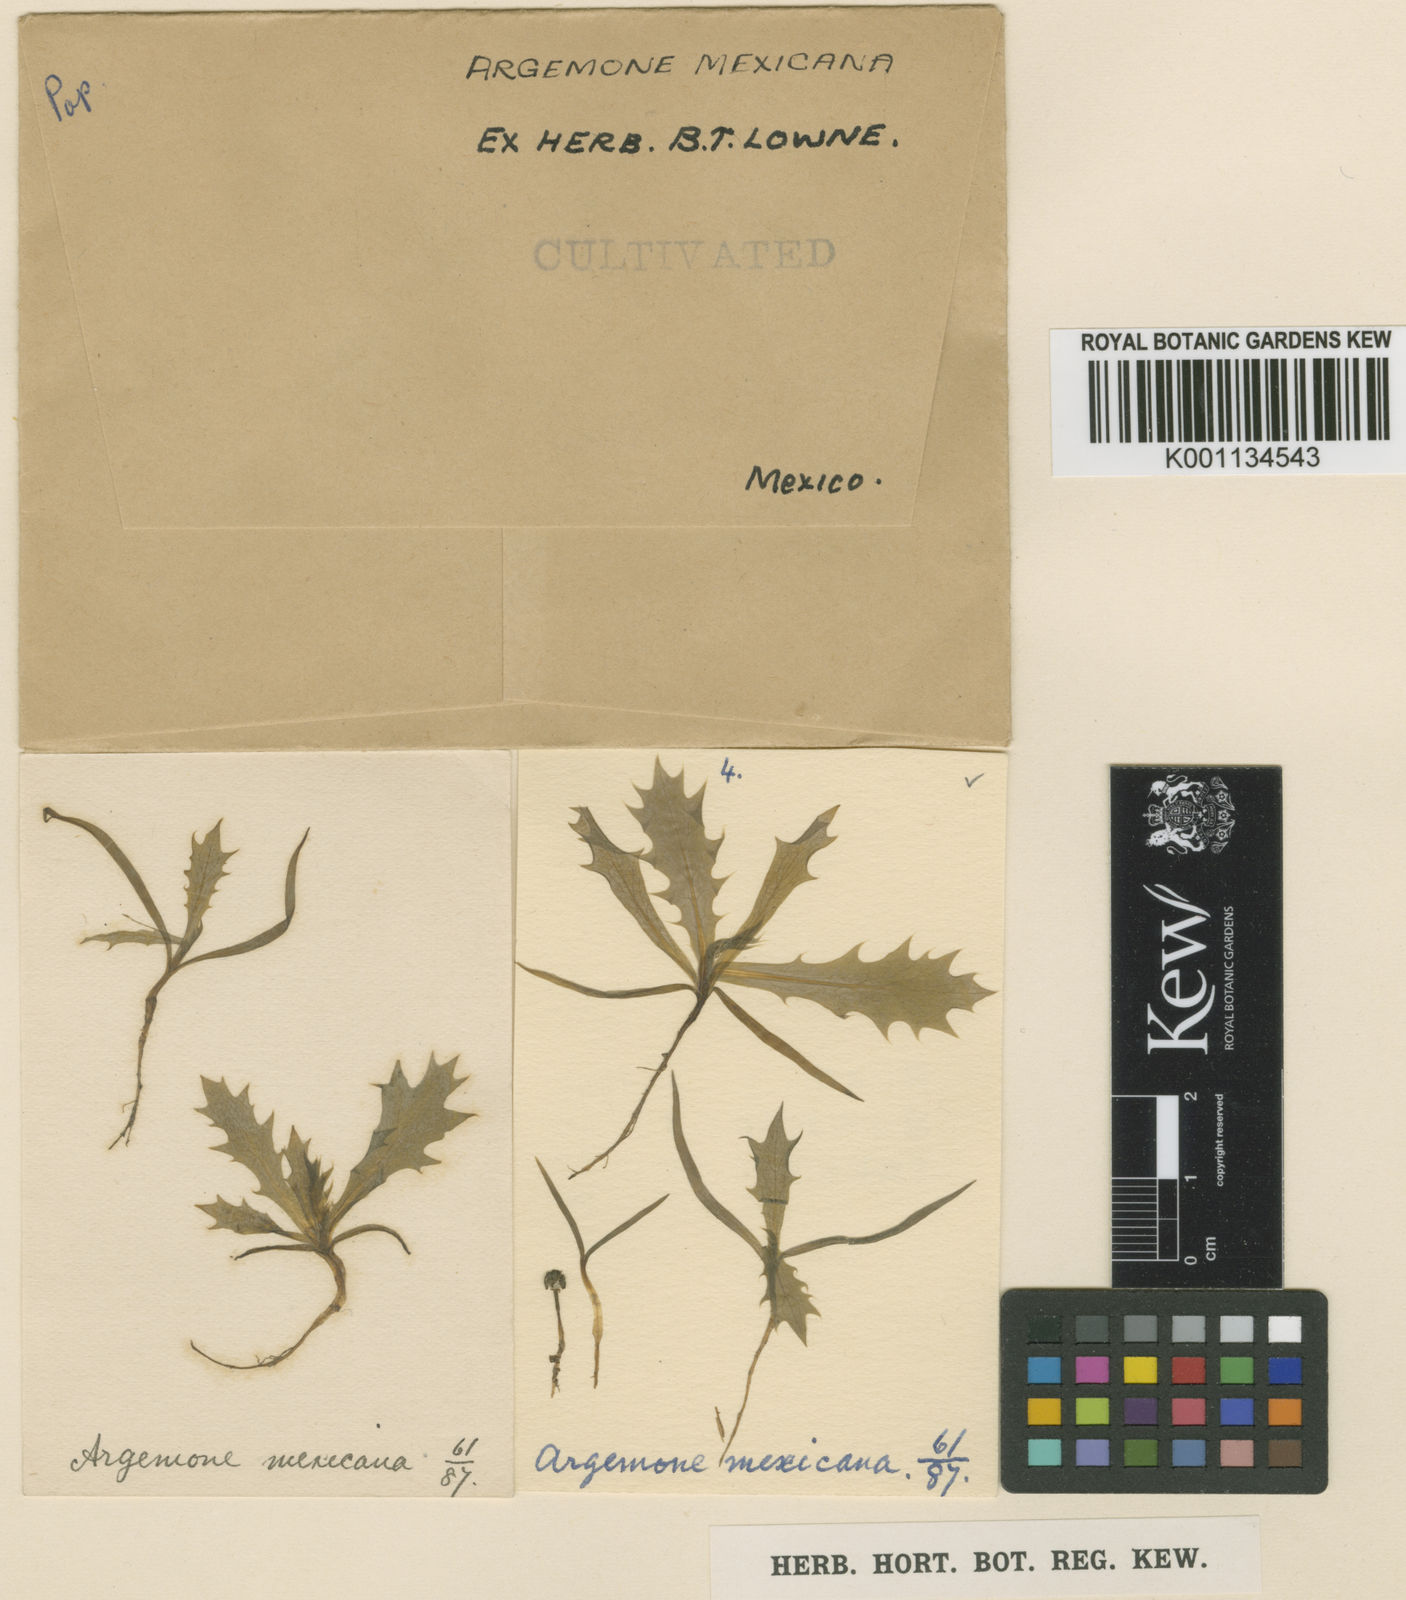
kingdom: Plantae
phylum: Tracheophyta
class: Magnoliopsida
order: Ranunculales
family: Papaveraceae
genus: Argemone
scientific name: Argemone mexicana
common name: Mexican poppy
